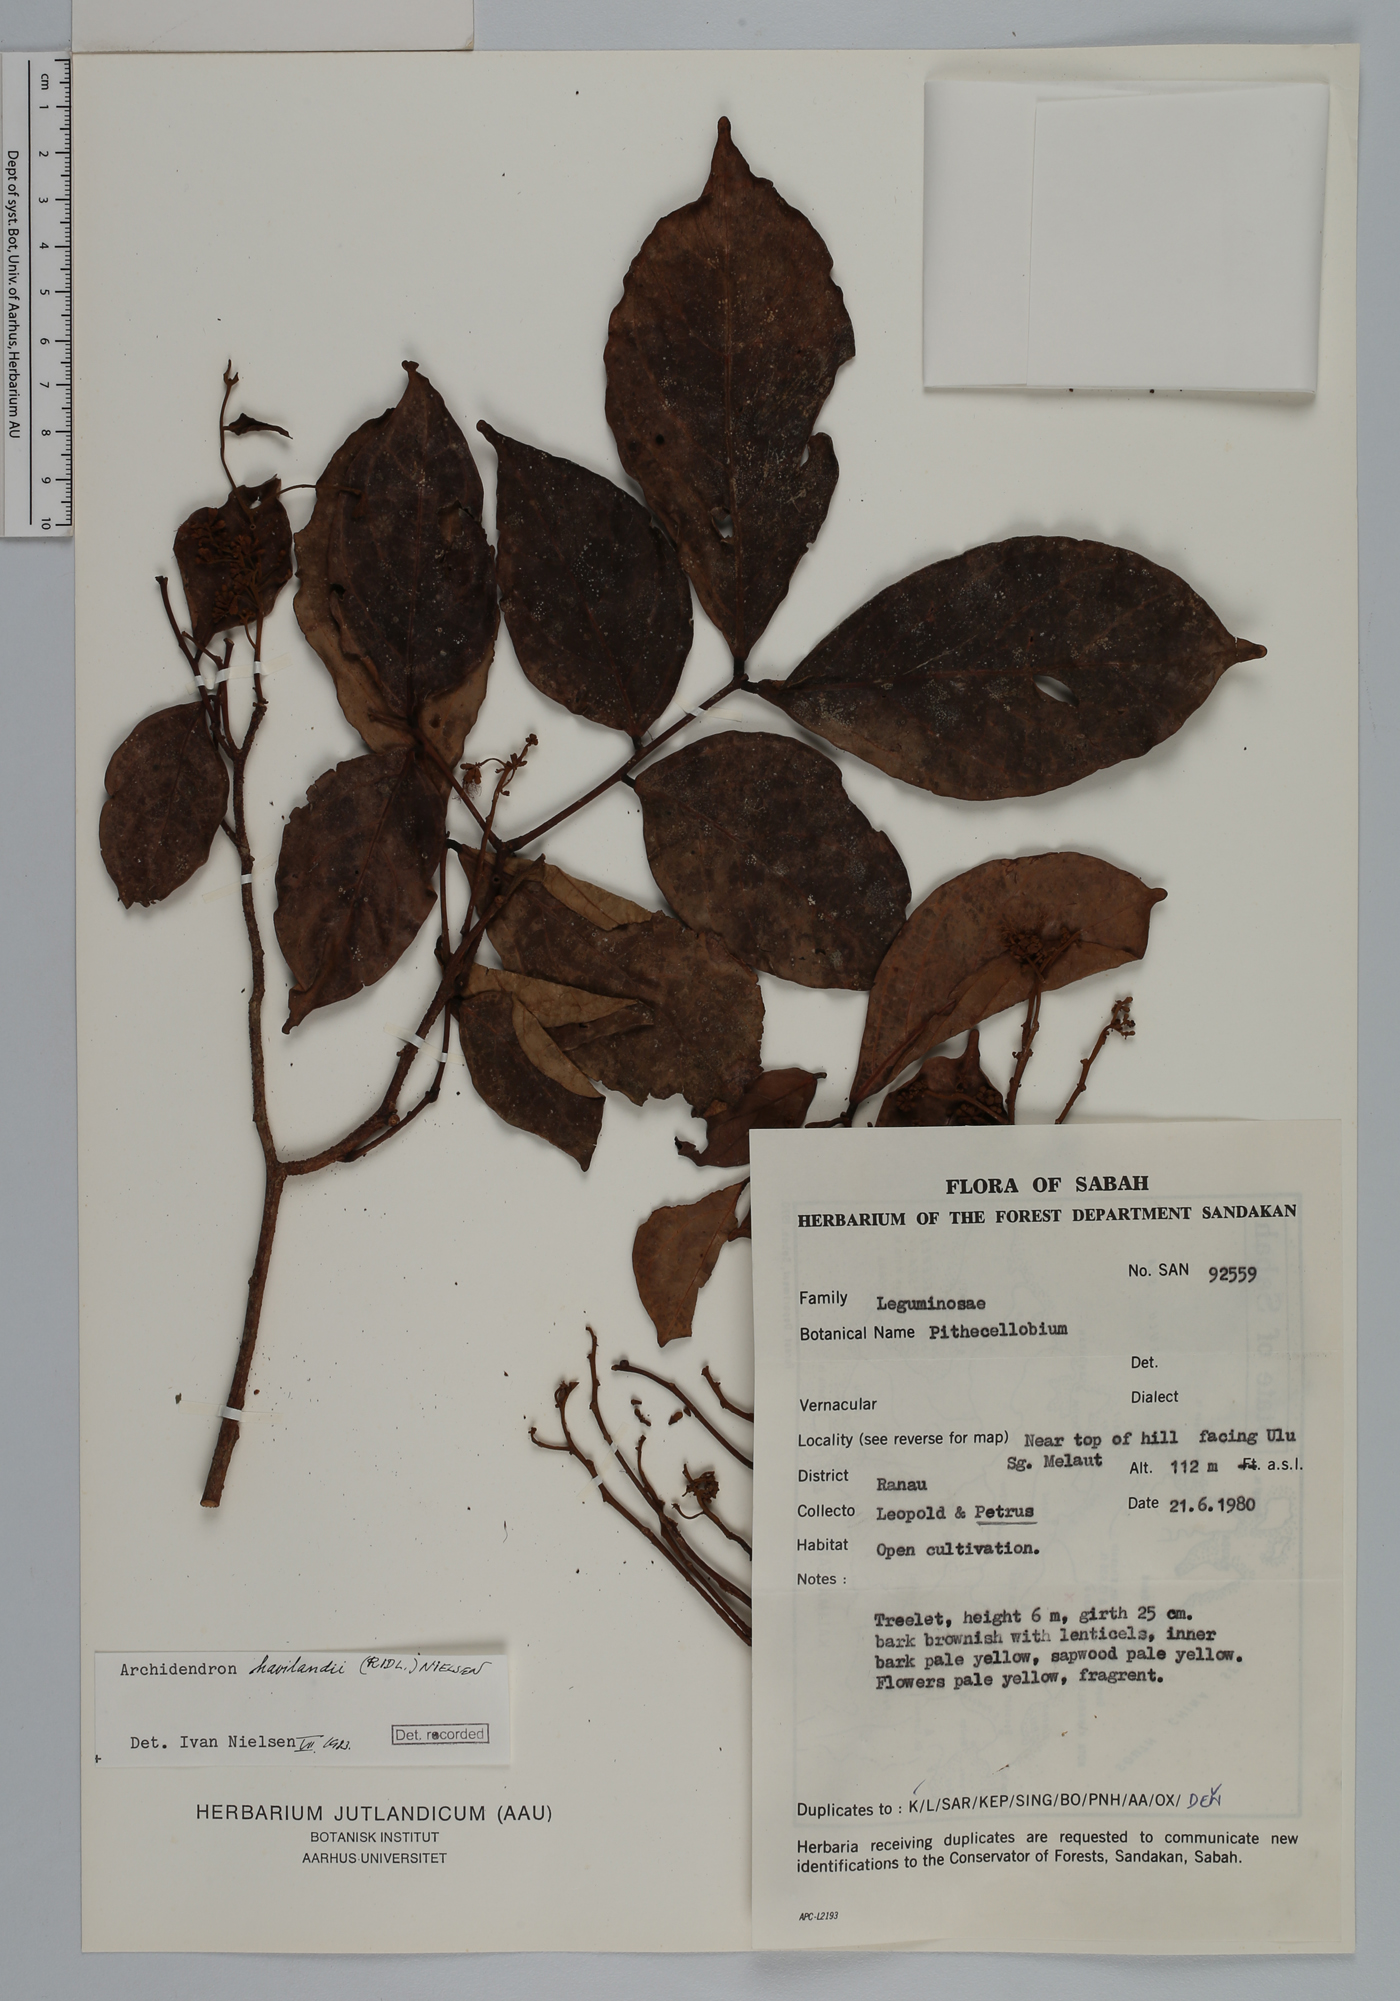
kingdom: Plantae
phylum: Tracheophyta
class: Magnoliopsida
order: Fabales
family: Fabaceae
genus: Archidendron
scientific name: Archidendron havilandii
